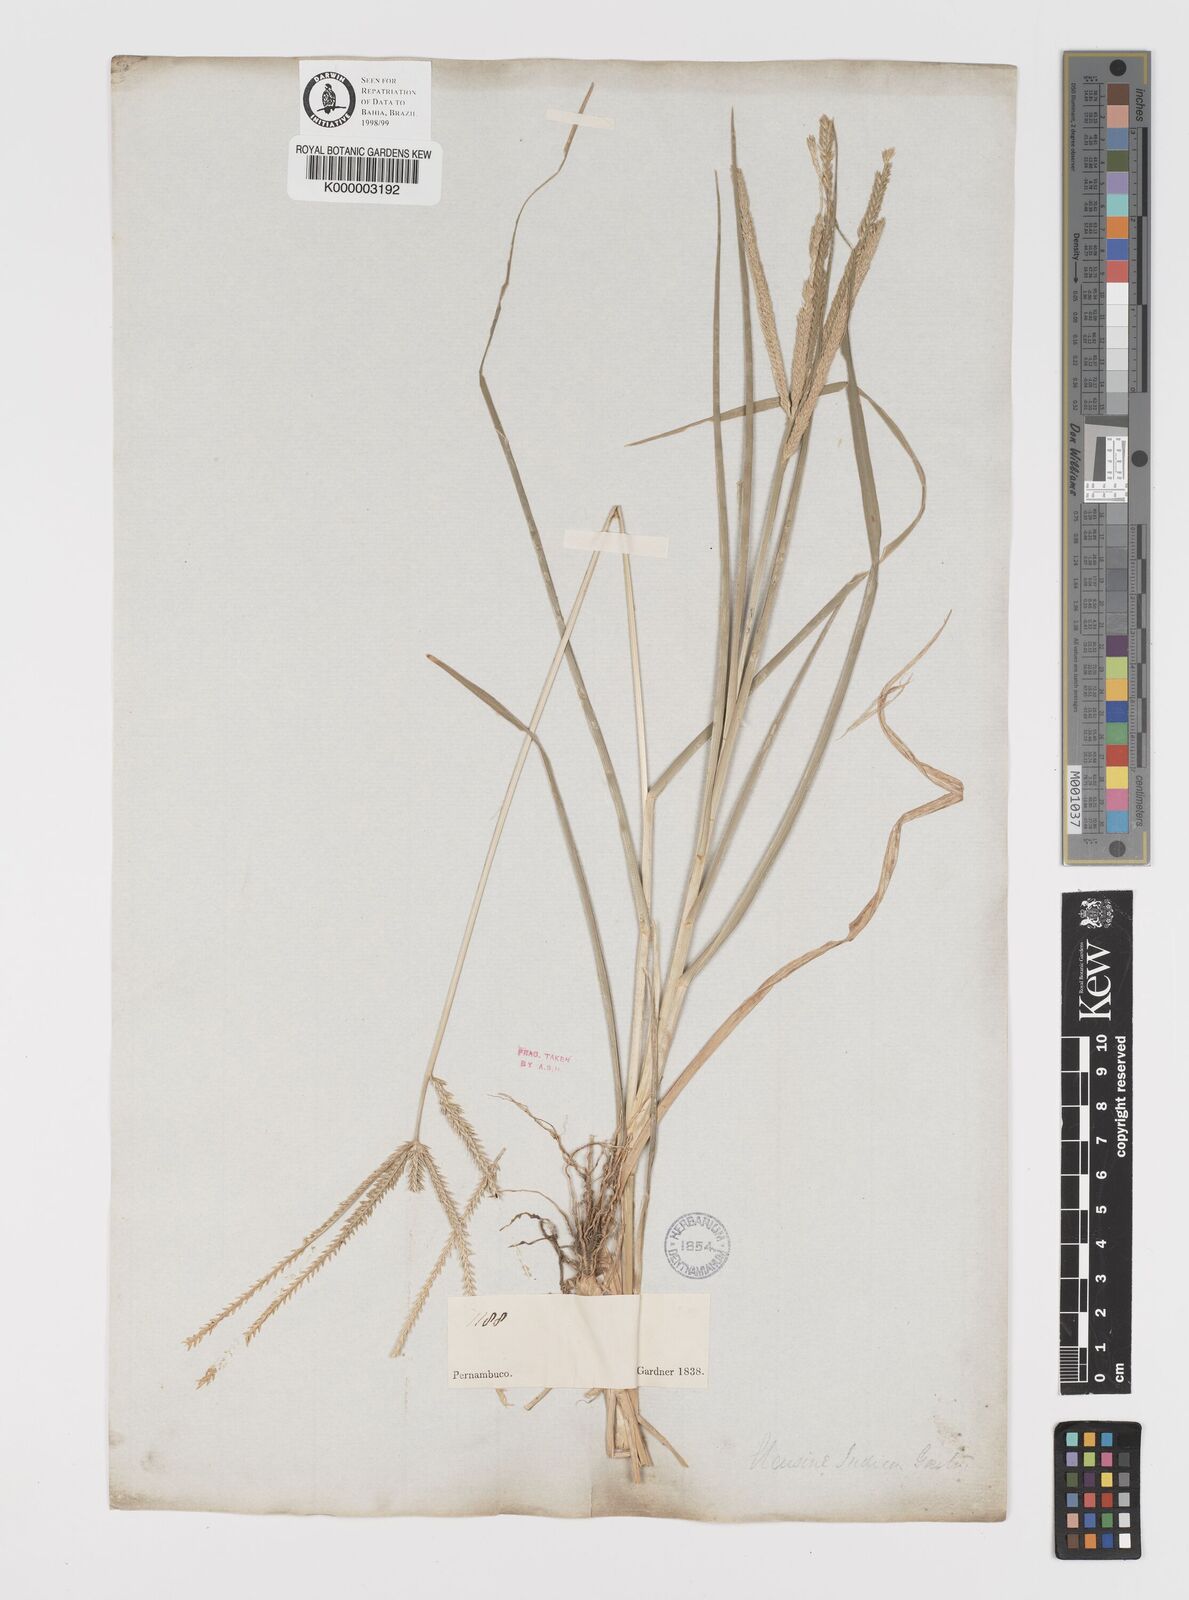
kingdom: Plantae
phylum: Tracheophyta
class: Liliopsida
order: Poales
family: Poaceae
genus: Eleusine
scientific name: Eleusine indica
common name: Yard-grass
